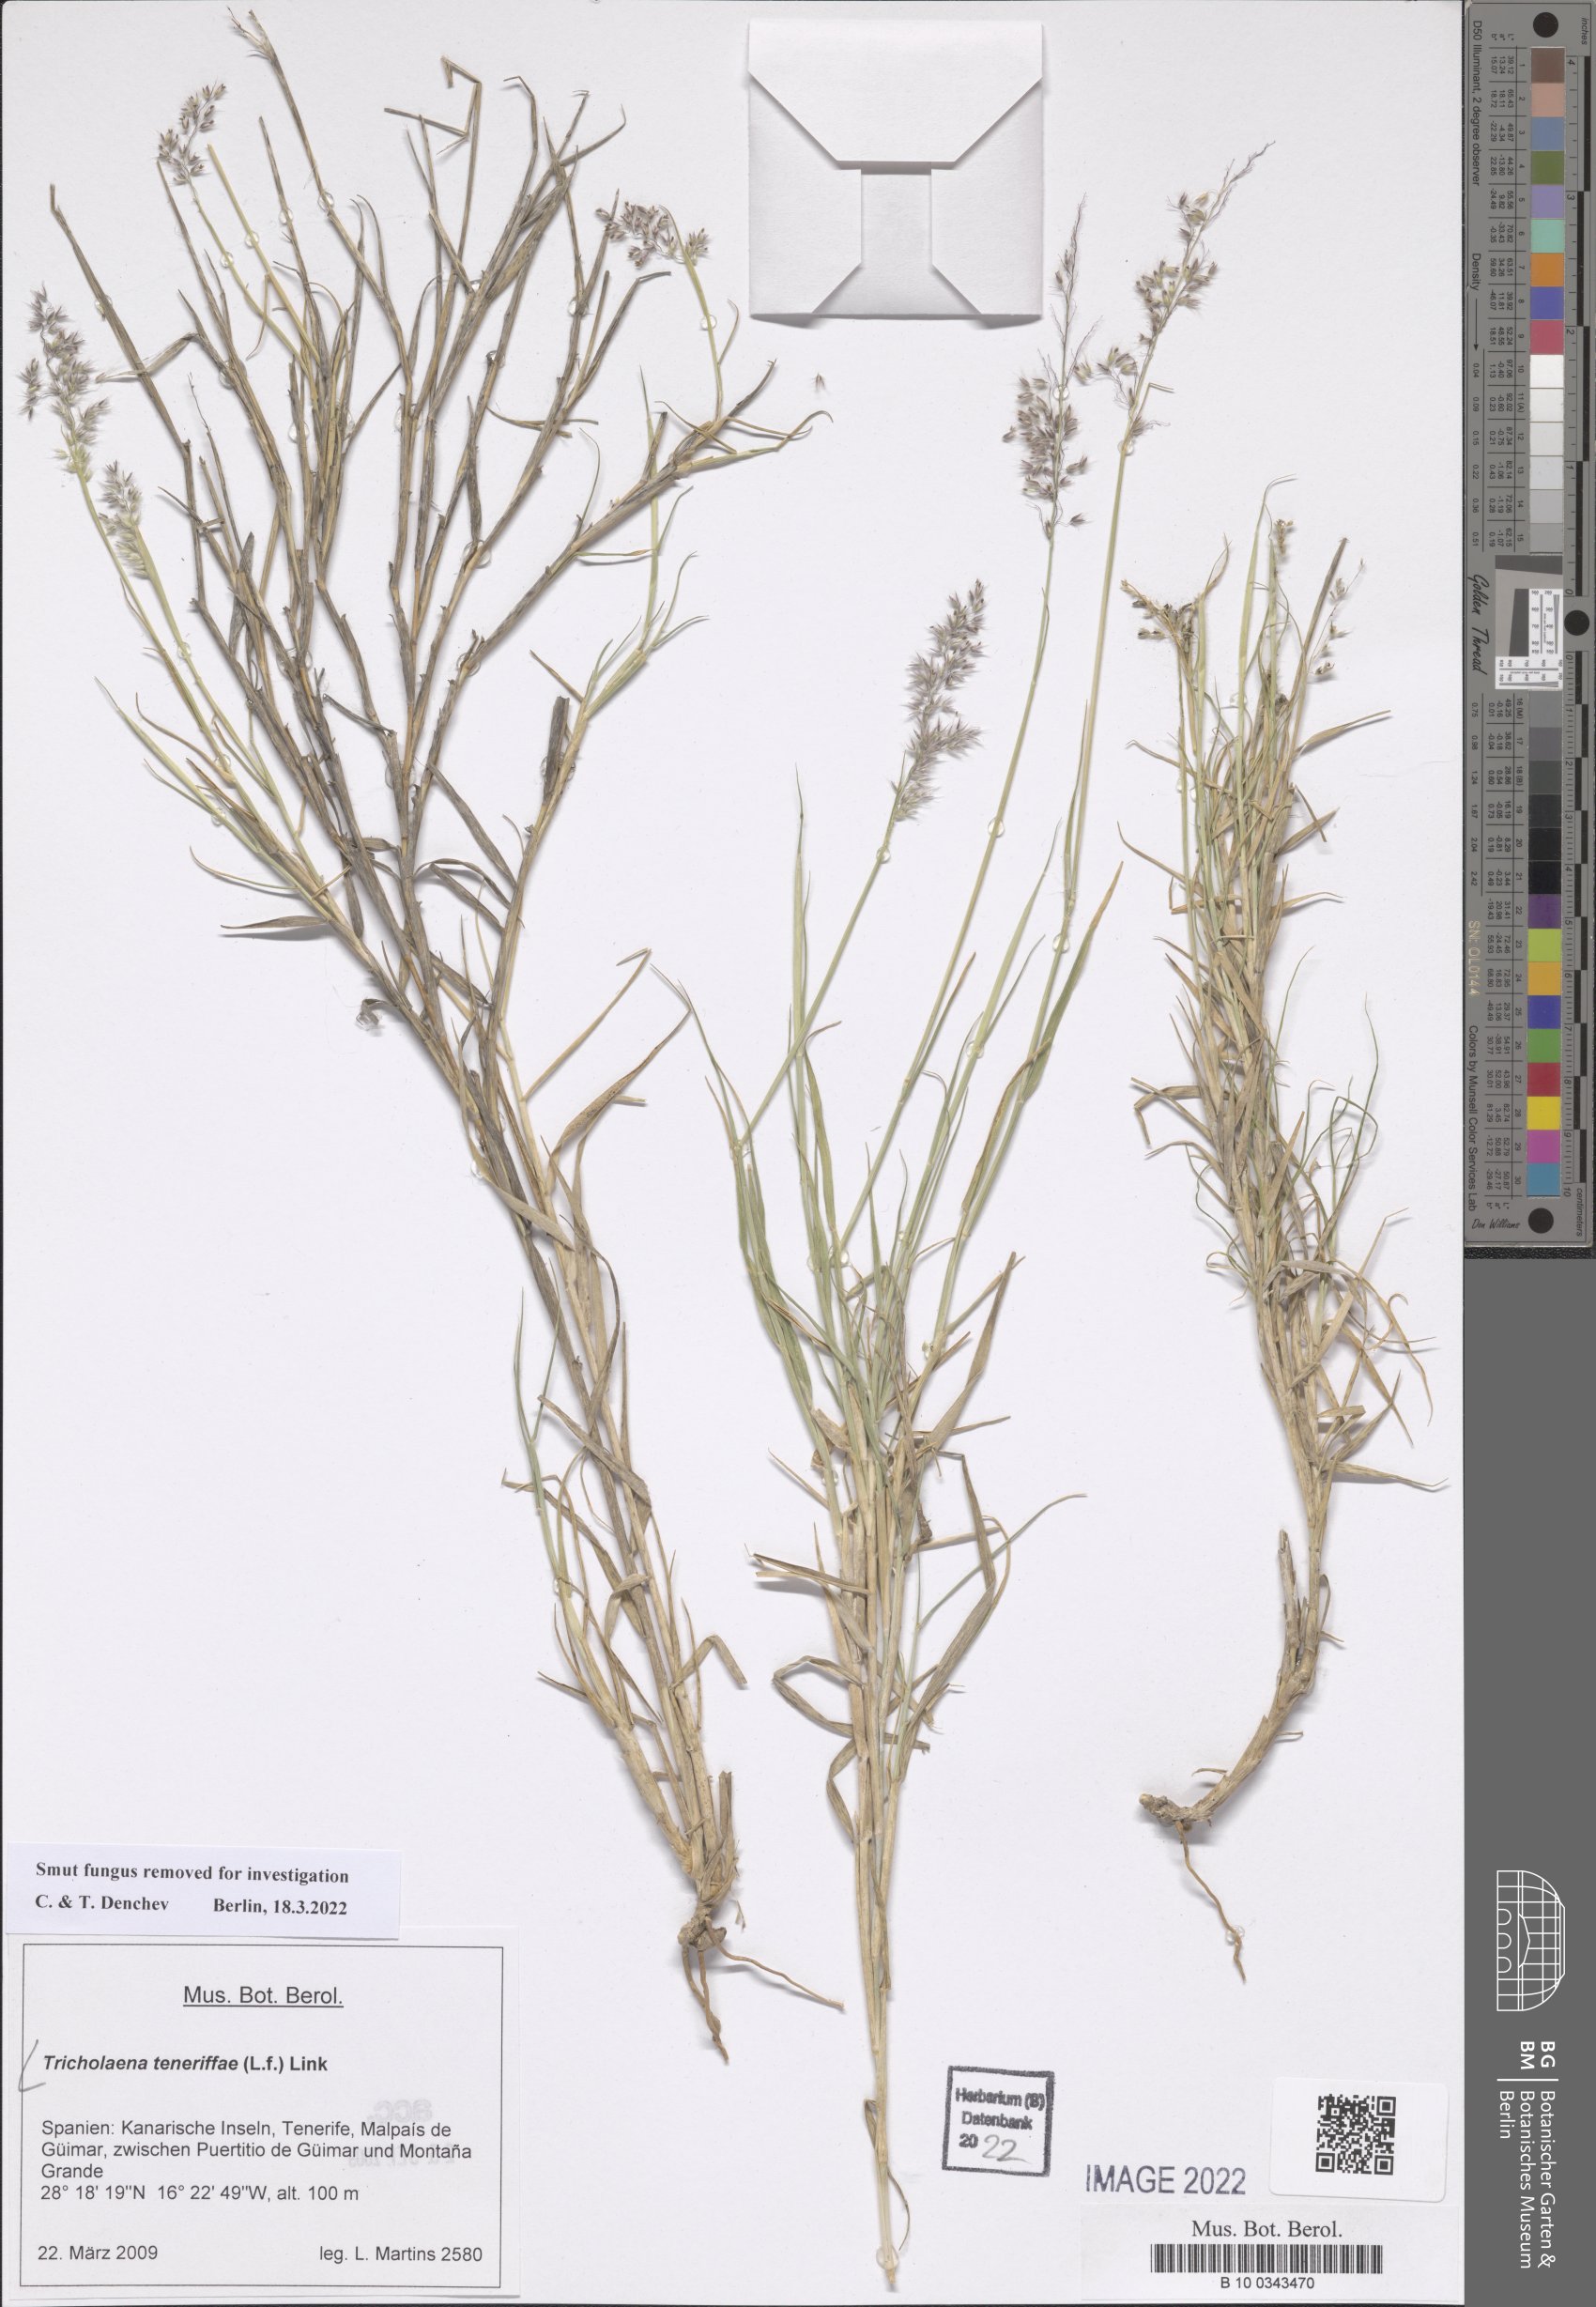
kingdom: Plantae
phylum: Tracheophyta
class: Liliopsida
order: Poales
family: Poaceae
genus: Tricholaena
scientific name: Tricholaena teneriffae
